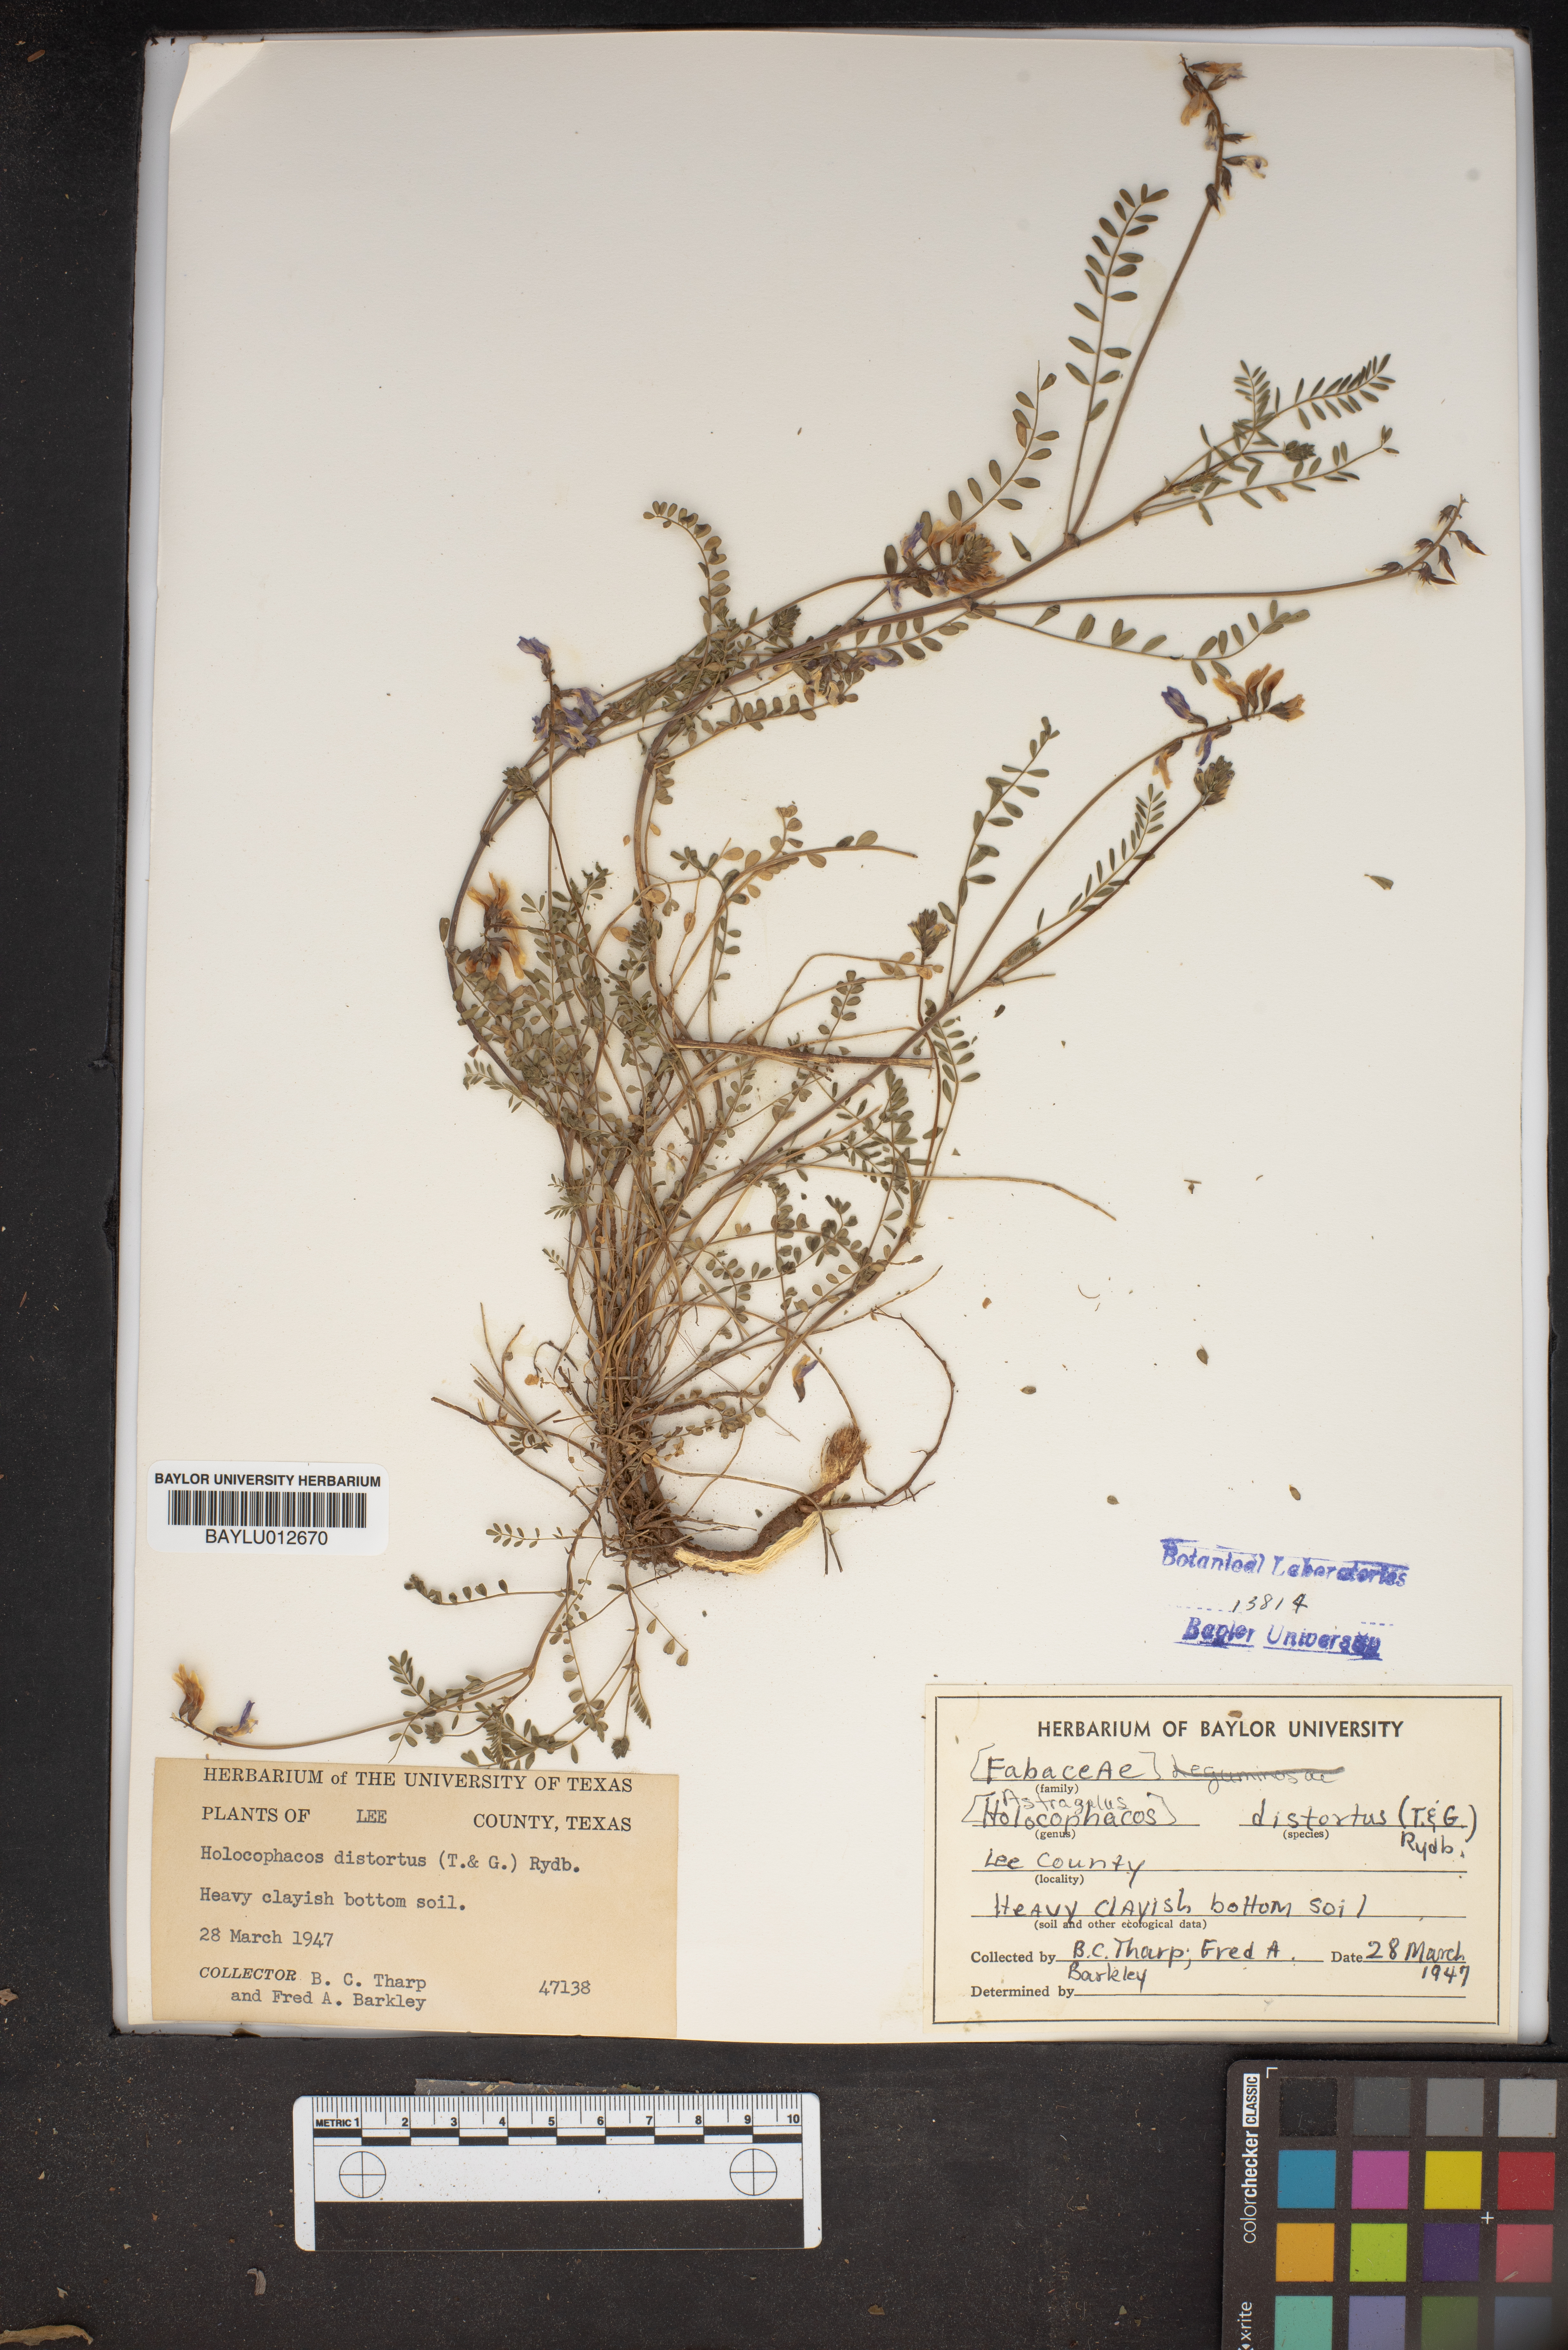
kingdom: Plantae
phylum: Tracheophyta
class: Magnoliopsida
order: Fabales
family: Fabaceae
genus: Astragalus
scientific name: Astragalus distortus
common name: Ozark milk-vetch
